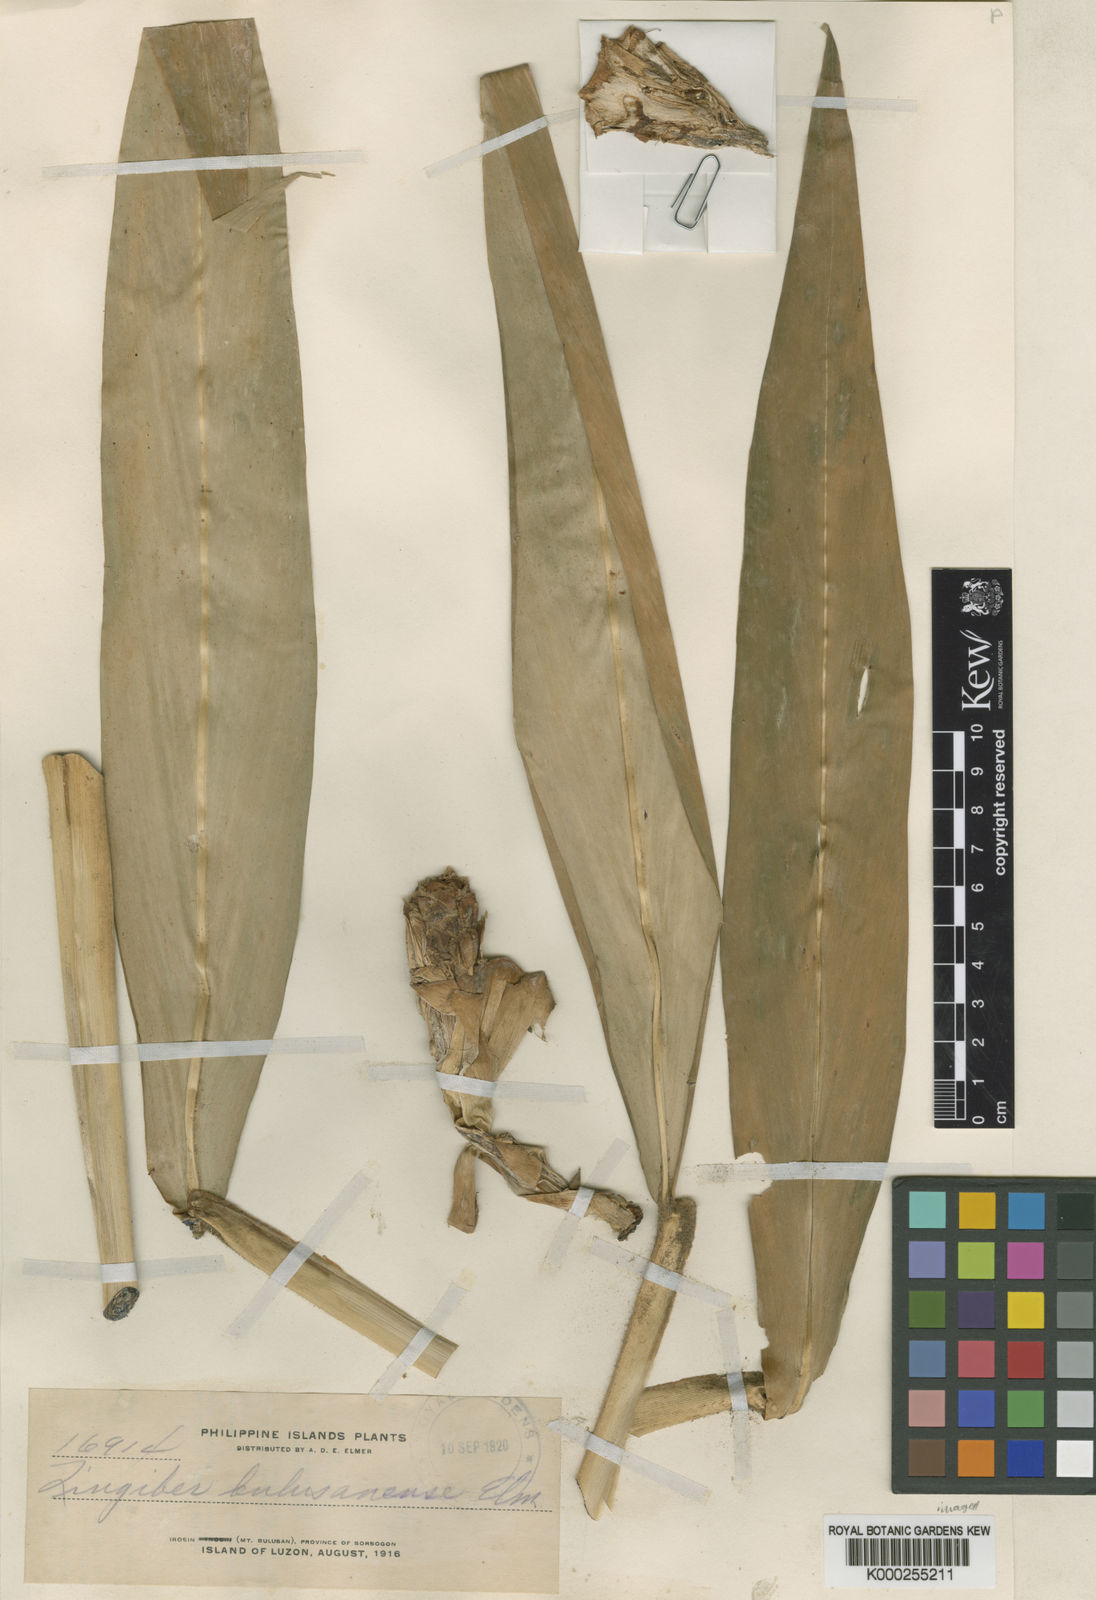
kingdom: Plantae
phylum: Tracheophyta
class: Liliopsida
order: Zingiberales
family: Zingiberaceae
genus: Zingiber
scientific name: Zingiber bulusanense
